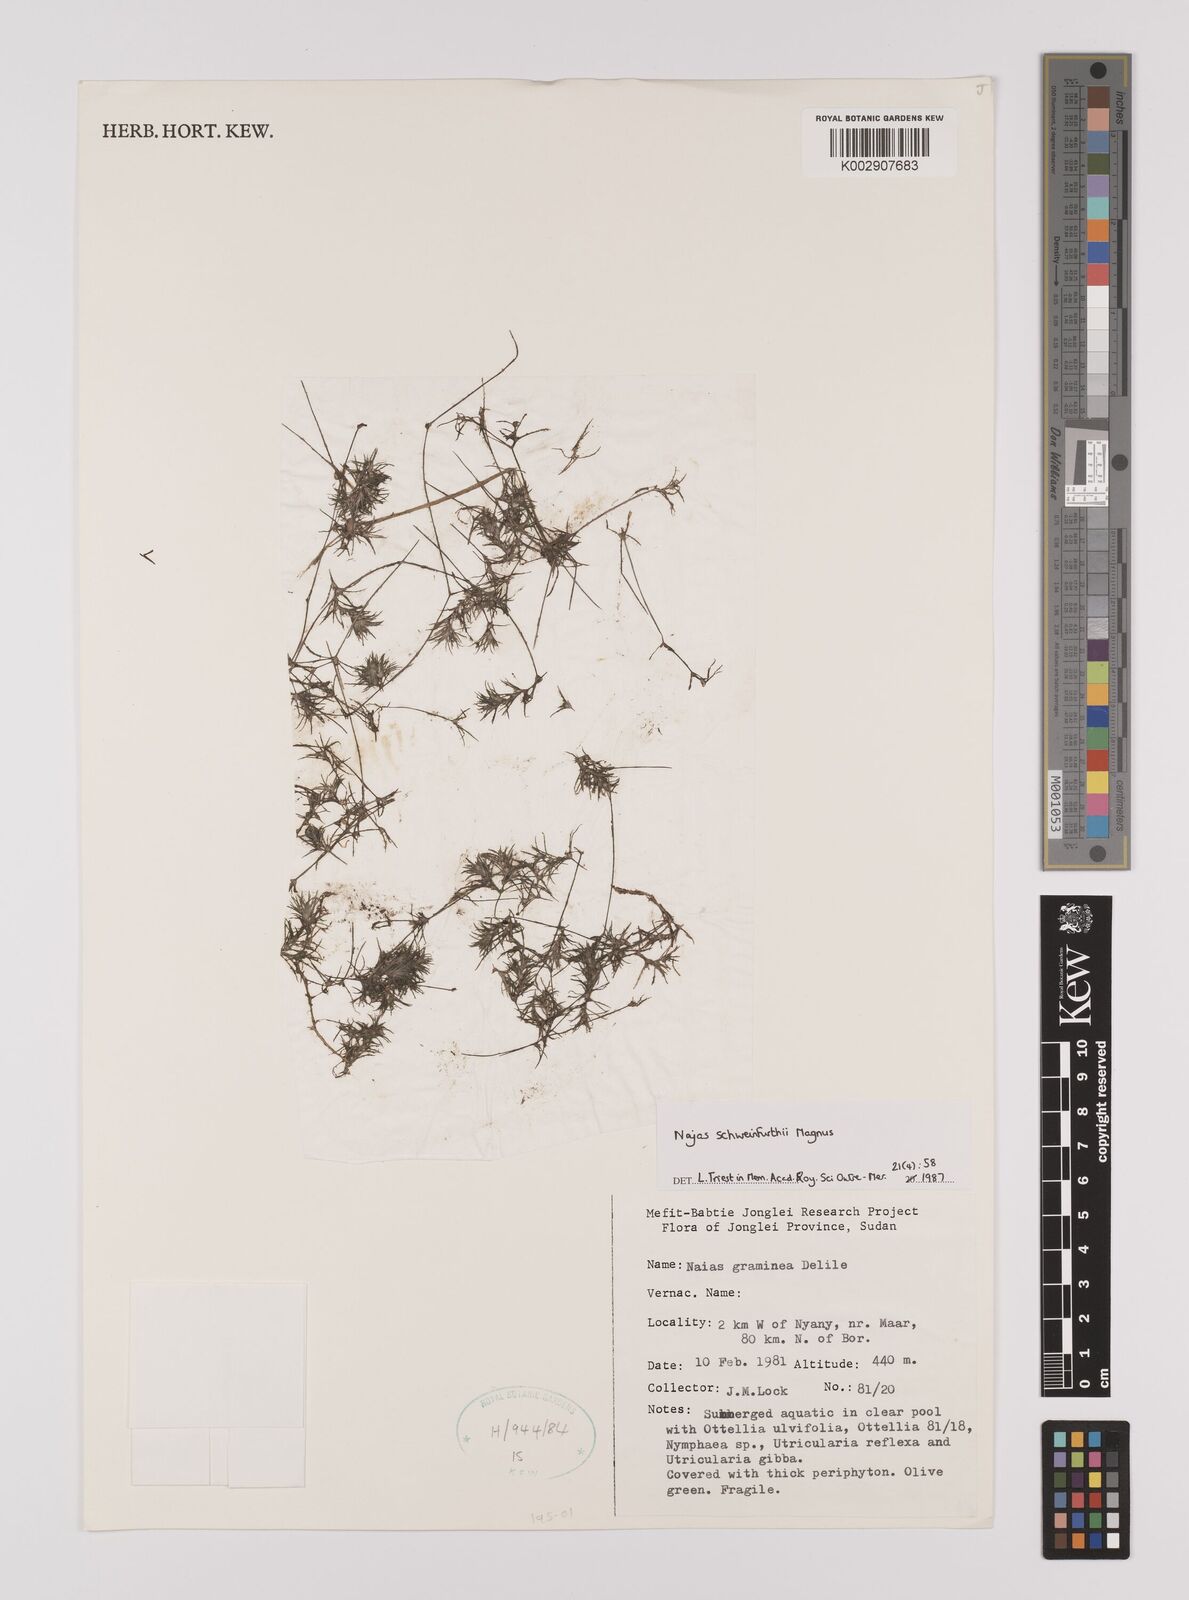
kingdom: Plantae
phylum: Tracheophyta
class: Liliopsida
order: Alismatales
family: Hydrocharitaceae
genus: Najas
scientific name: Najas schweinfurthii
